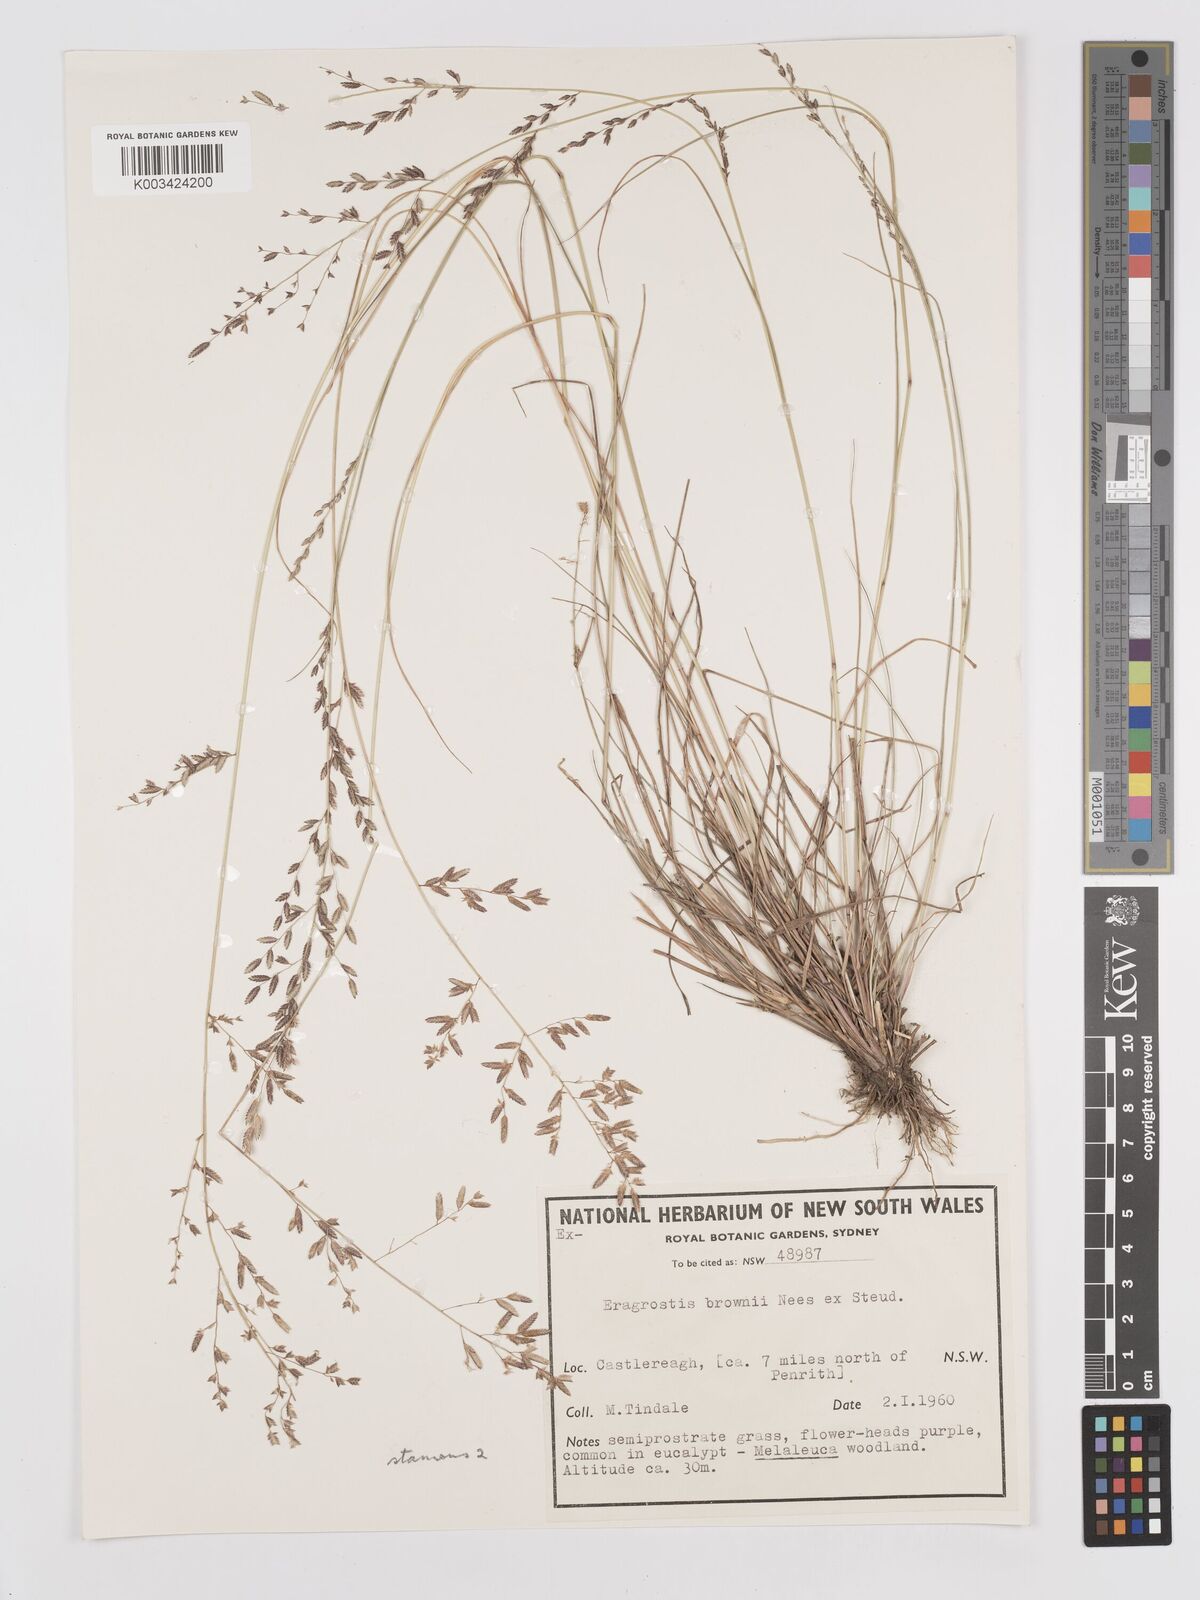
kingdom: Plantae
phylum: Tracheophyta
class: Liliopsida
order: Poales
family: Poaceae
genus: Eragrostis
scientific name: Eragrostis brownii
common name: Lovegrass
